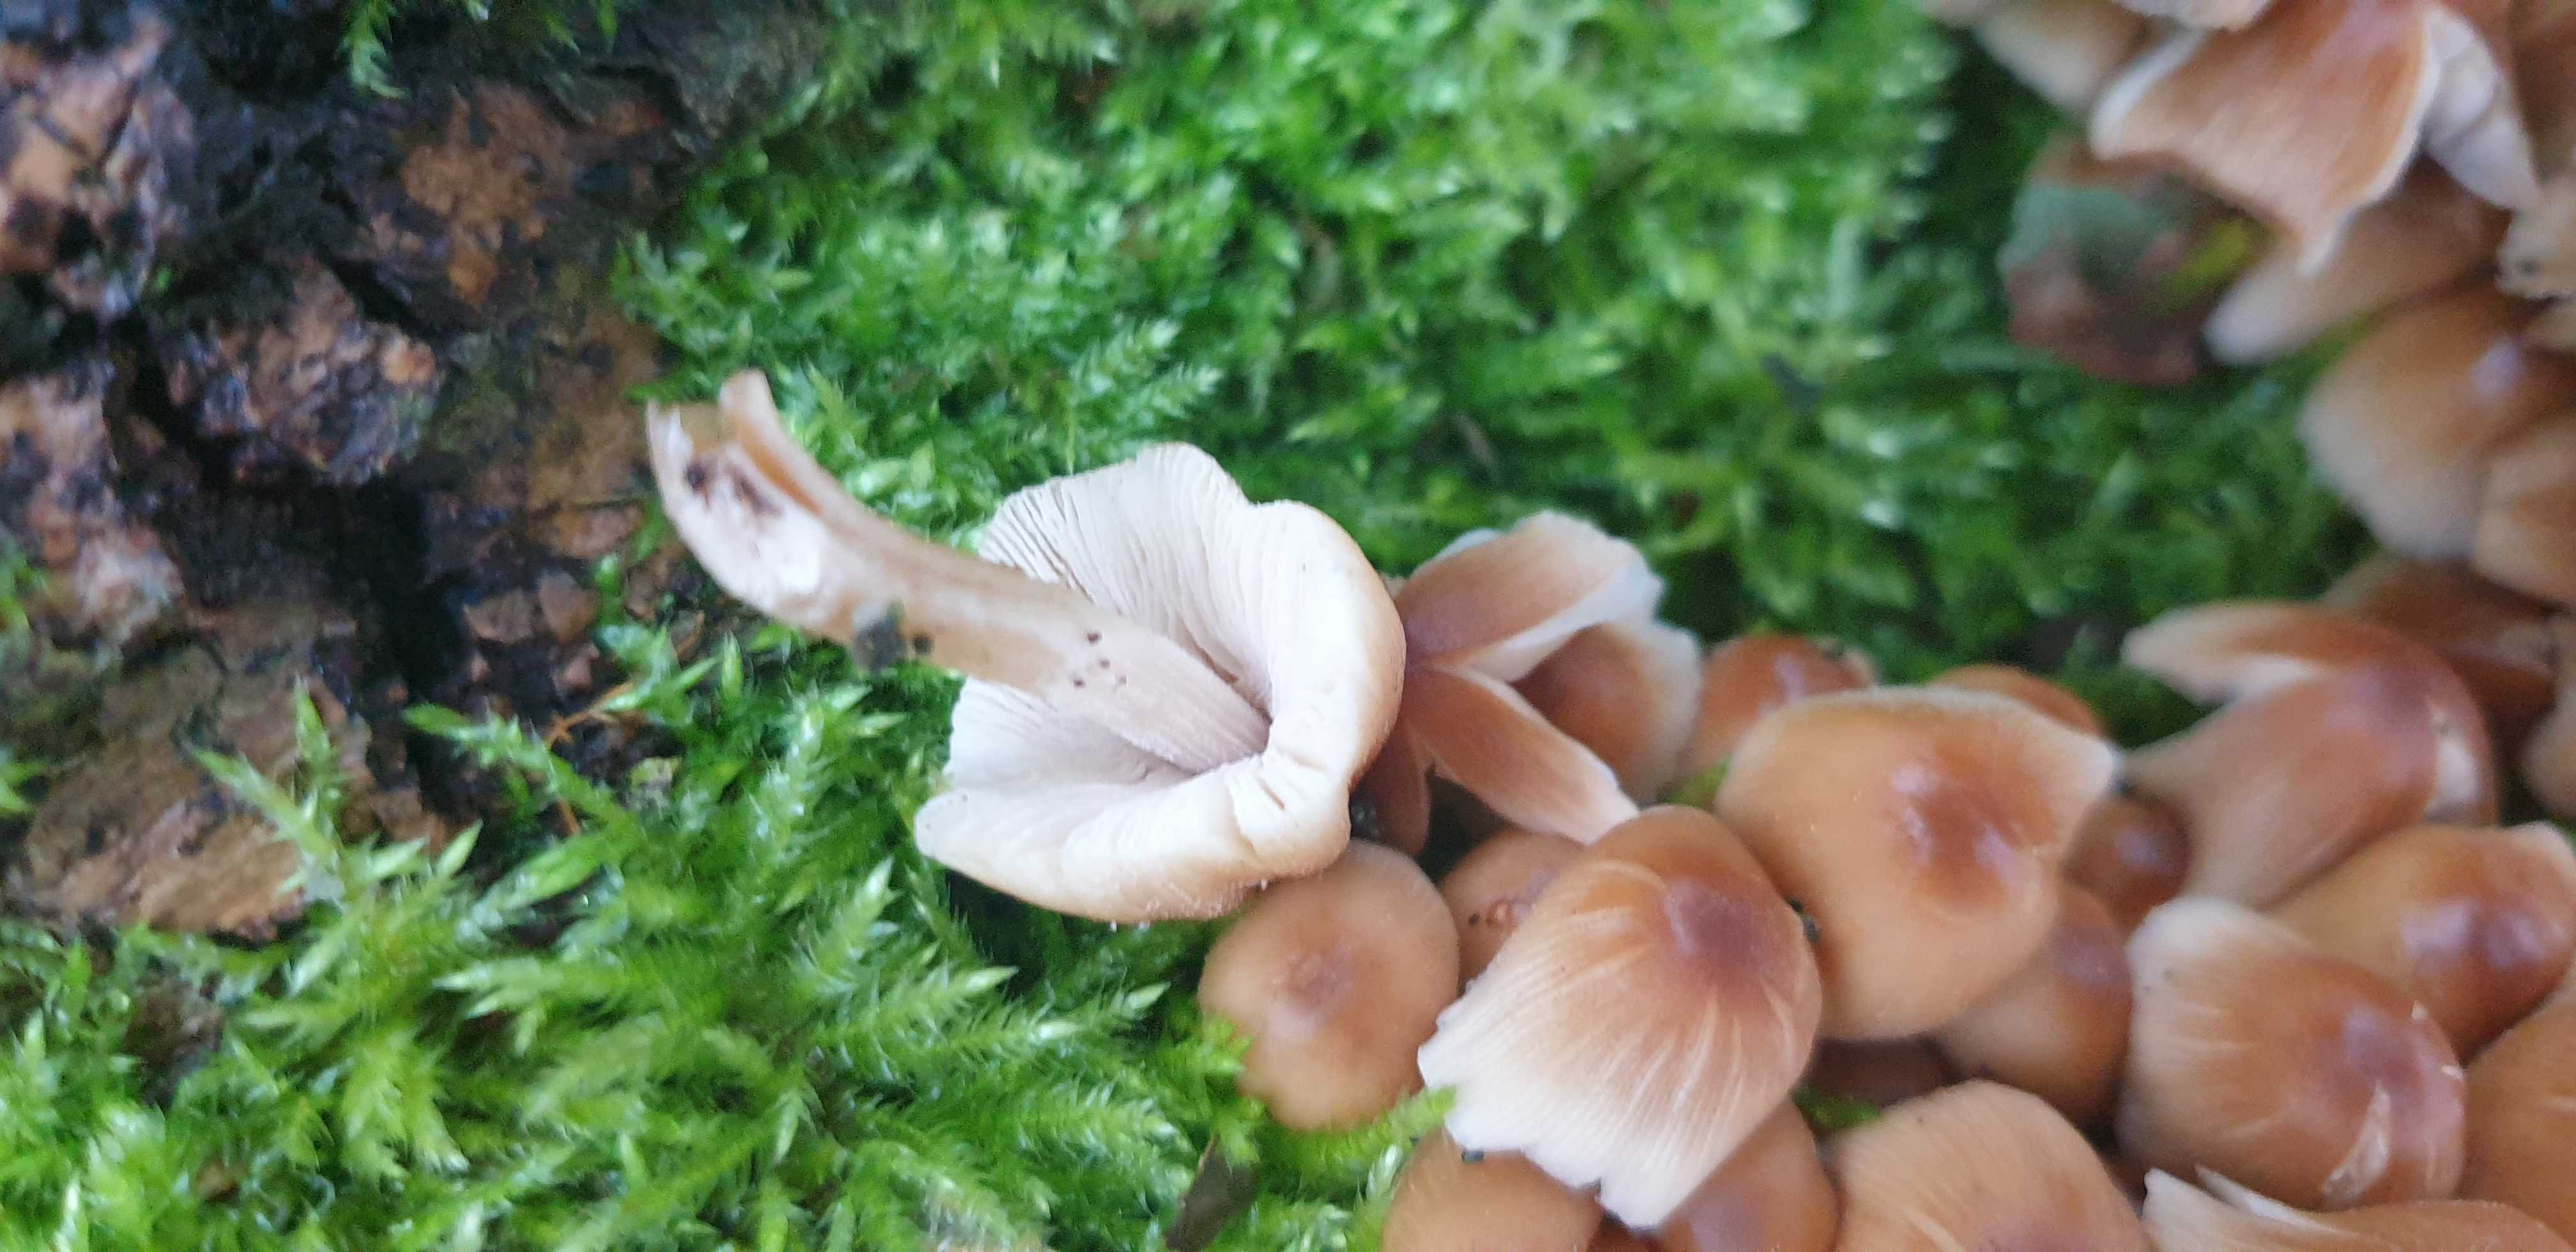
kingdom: Fungi
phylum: Basidiomycota
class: Agaricomycetes
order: Agaricales
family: Psathyrellaceae
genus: Coprinellus
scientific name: Coprinellus micaceus
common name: glimmer-blækhat
